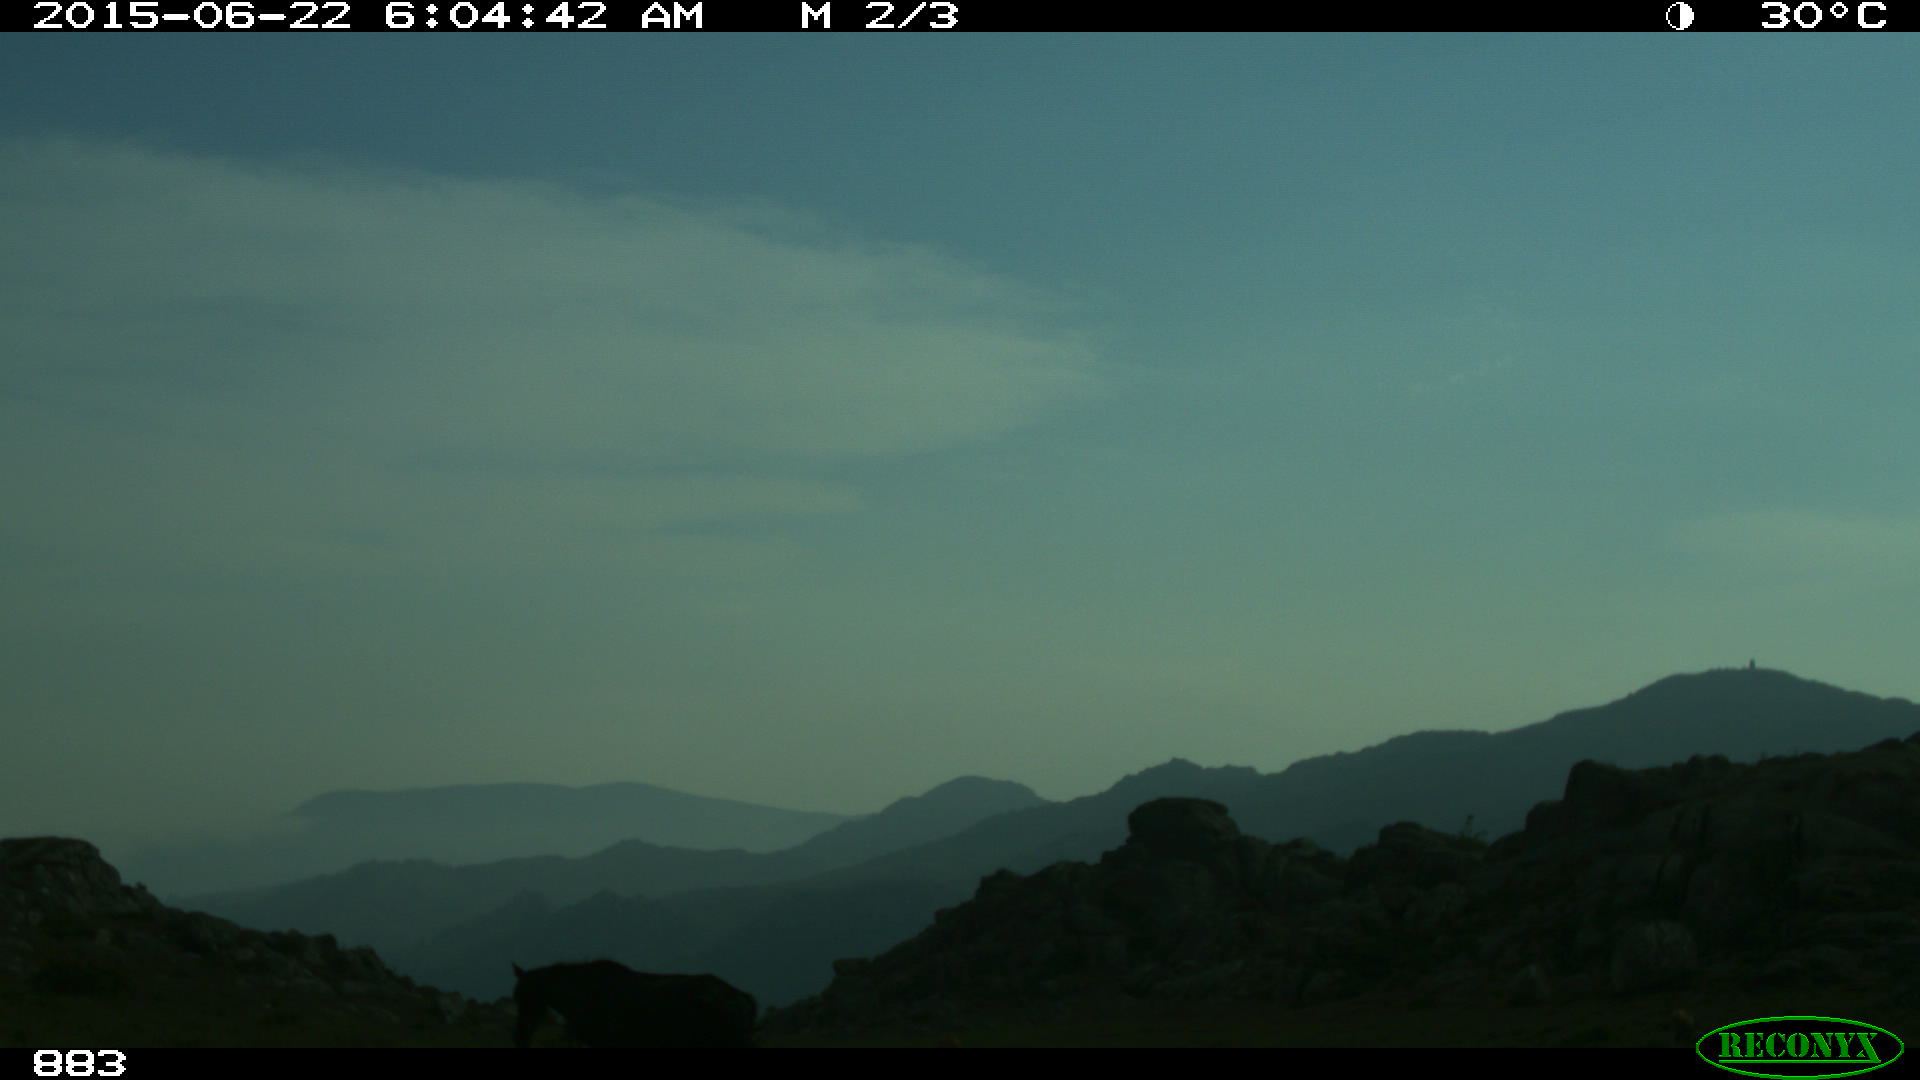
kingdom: Animalia
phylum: Chordata
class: Mammalia
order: Perissodactyla
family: Equidae
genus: Equus
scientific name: Equus caballus
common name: Horse
